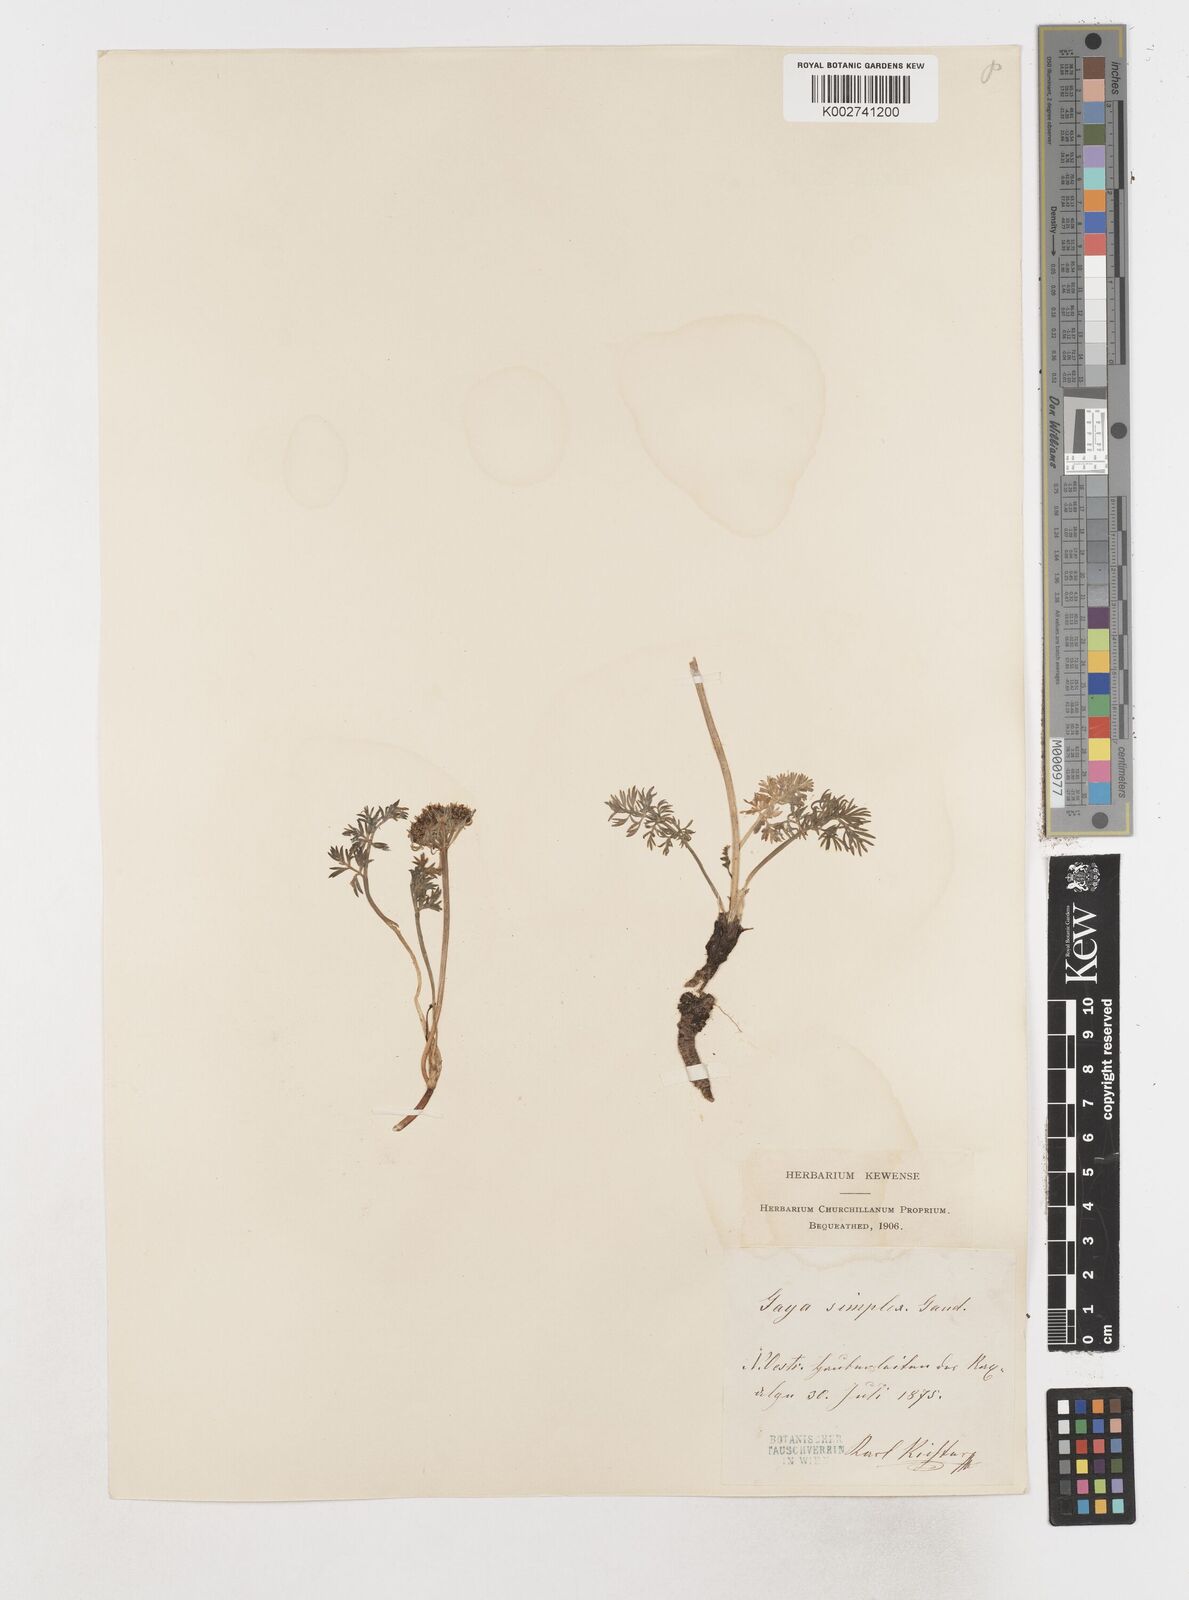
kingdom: Plantae
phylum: Tracheophyta
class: Magnoliopsida
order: Apiales
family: Apiaceae
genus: Pachypleurum
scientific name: Pachypleurum mutellinoides
